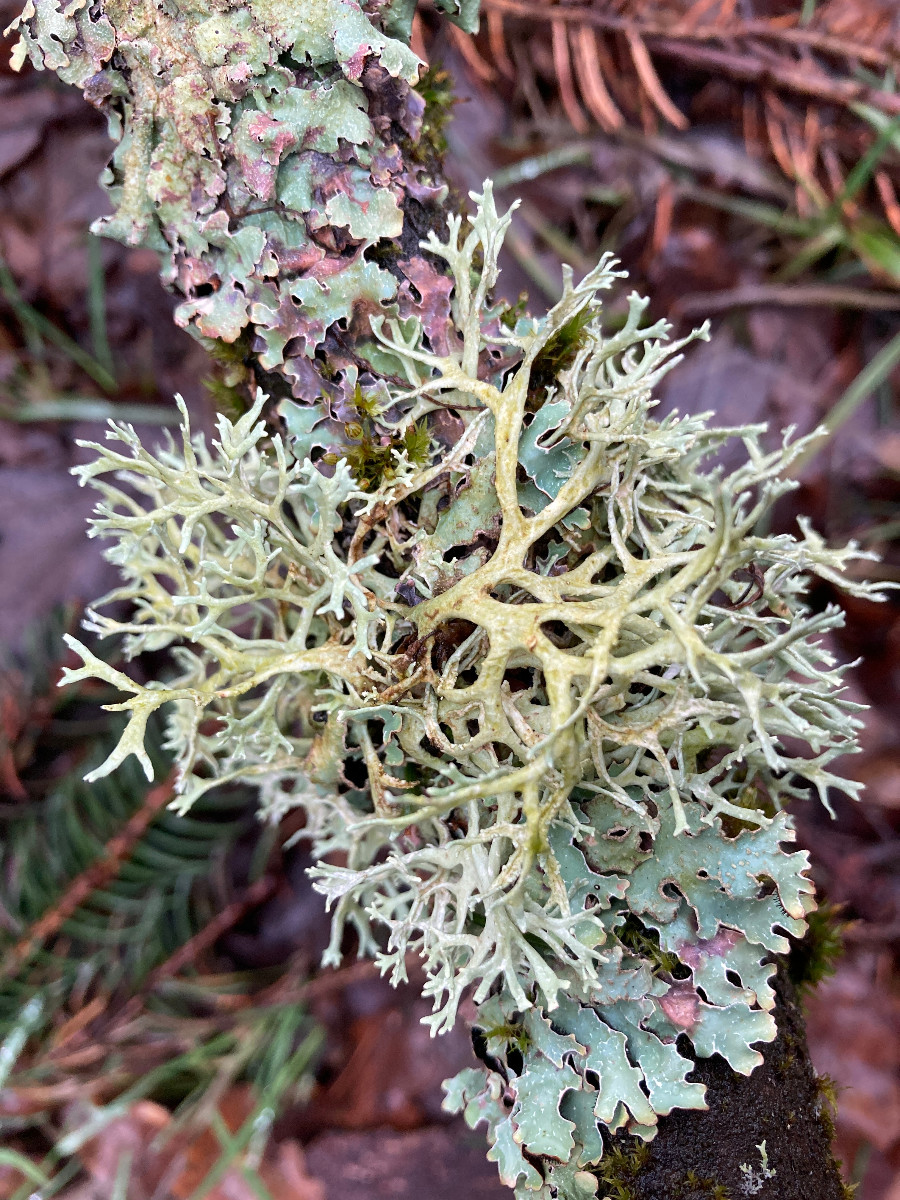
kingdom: Fungi
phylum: Ascomycota
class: Lecanoromycetes
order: Lecanorales
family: Parmeliaceae
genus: Evernia
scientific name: Evernia prunastri
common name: almindelig slåenlav
